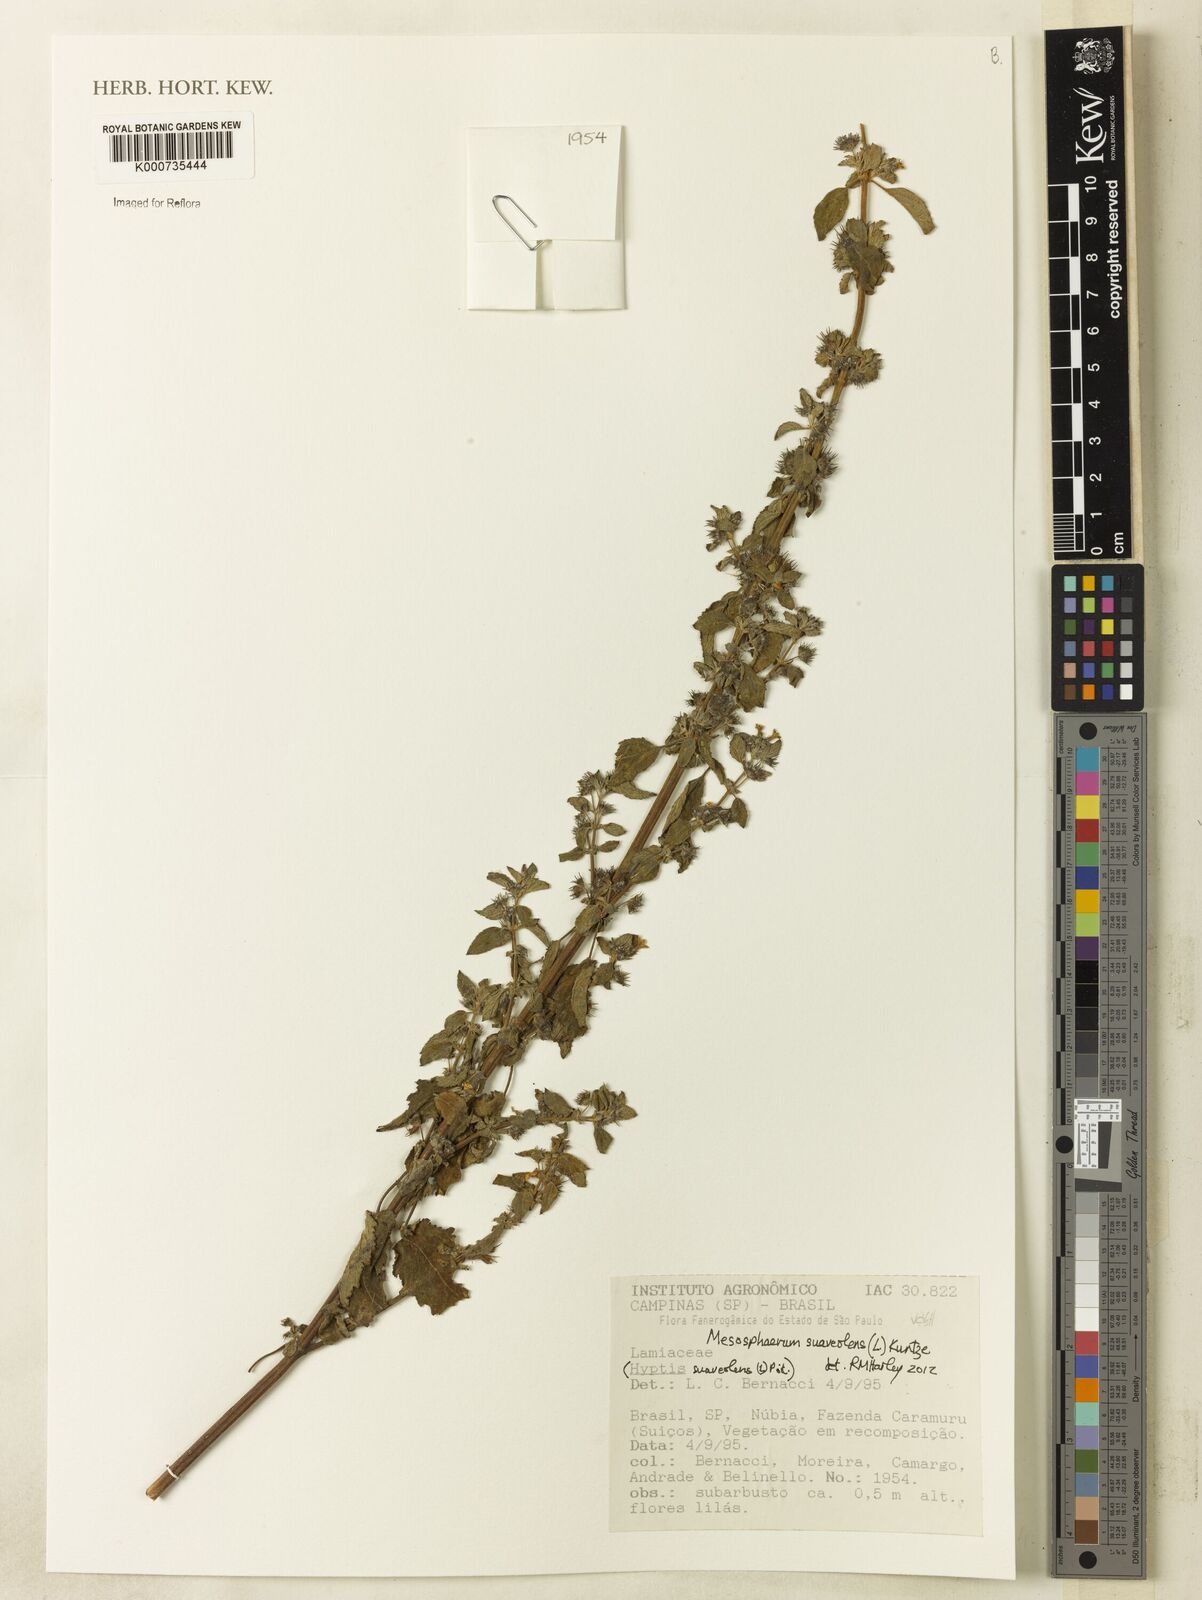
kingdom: Plantae
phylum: Tracheophyta
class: Magnoliopsida
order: Lamiales
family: Lamiaceae
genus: Mesosphaerum
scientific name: Mesosphaerum suaveolens
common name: Pignut
